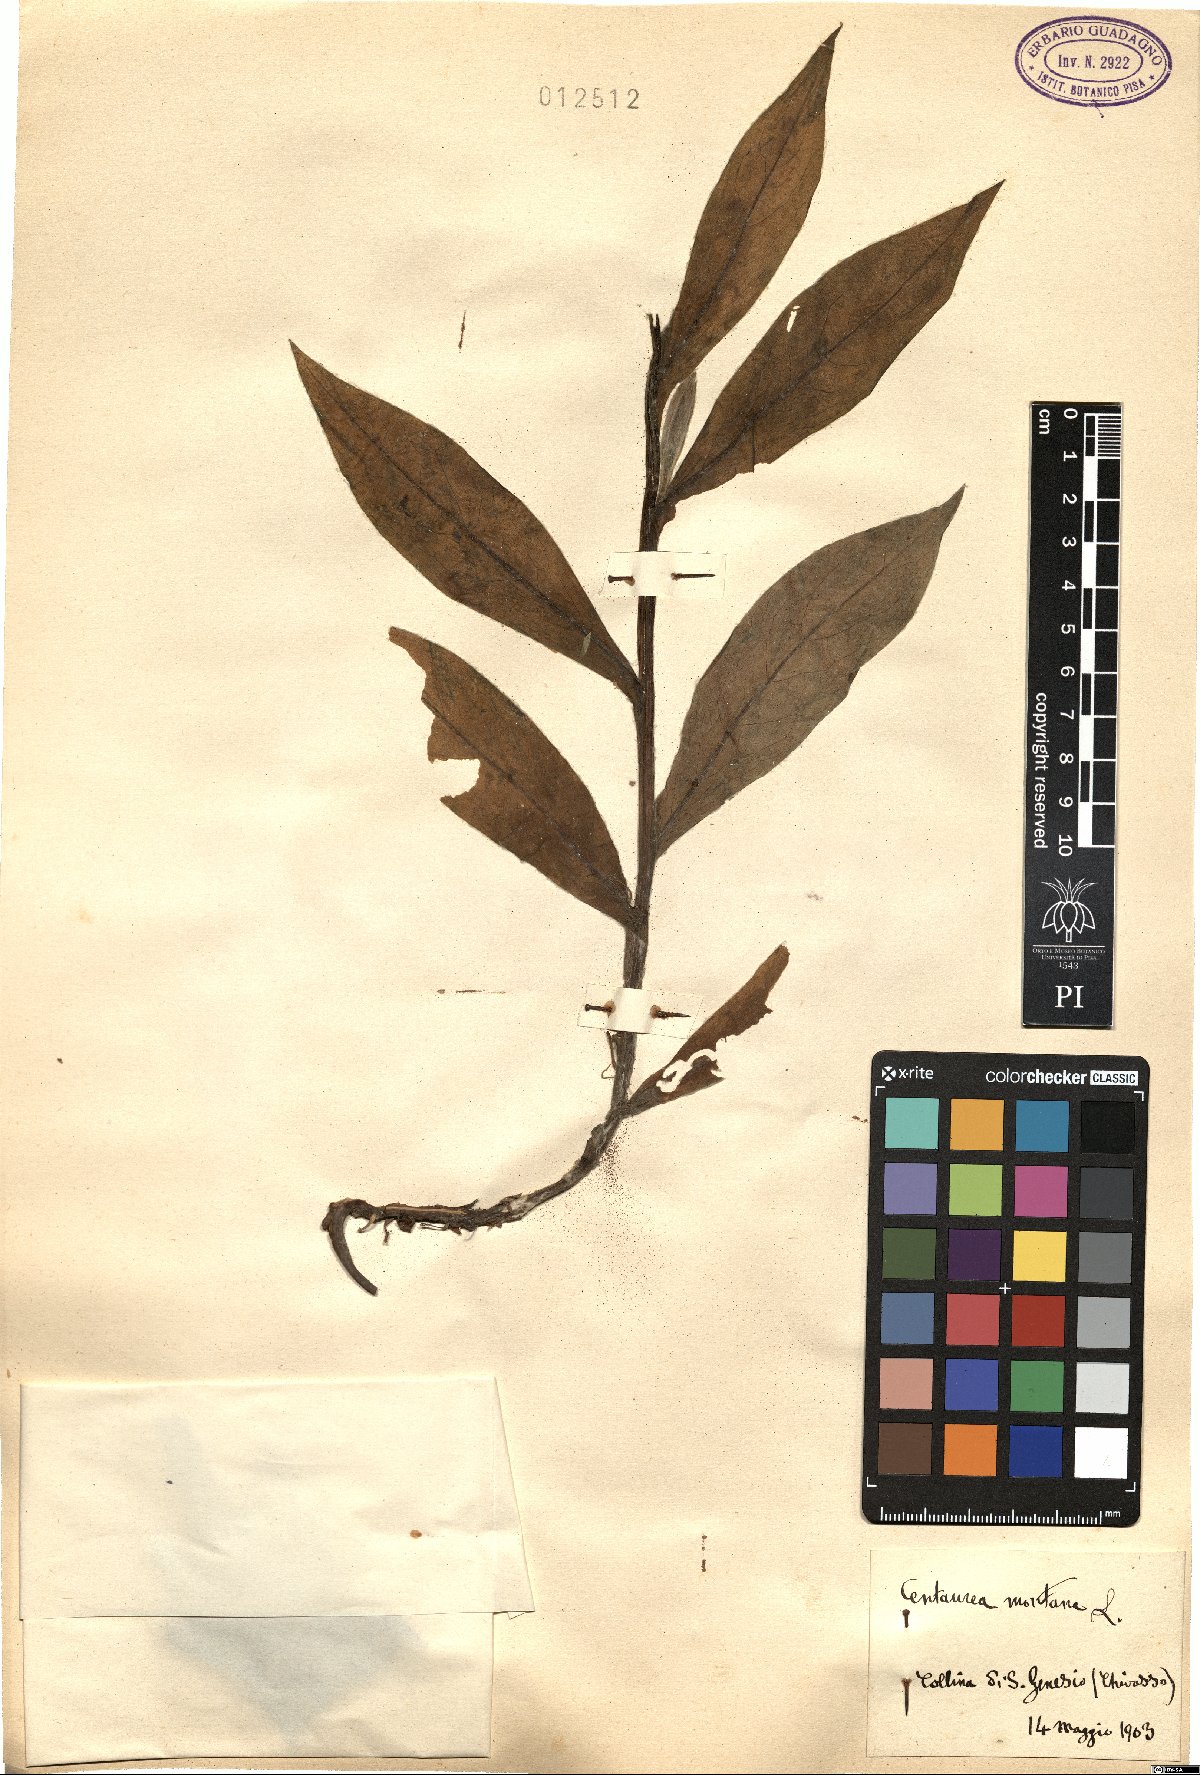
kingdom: Plantae
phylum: Tracheophyta
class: Magnoliopsida
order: Asterales
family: Asteraceae
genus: Centaurea
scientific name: Centaurea montana
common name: Perennial cornflower
